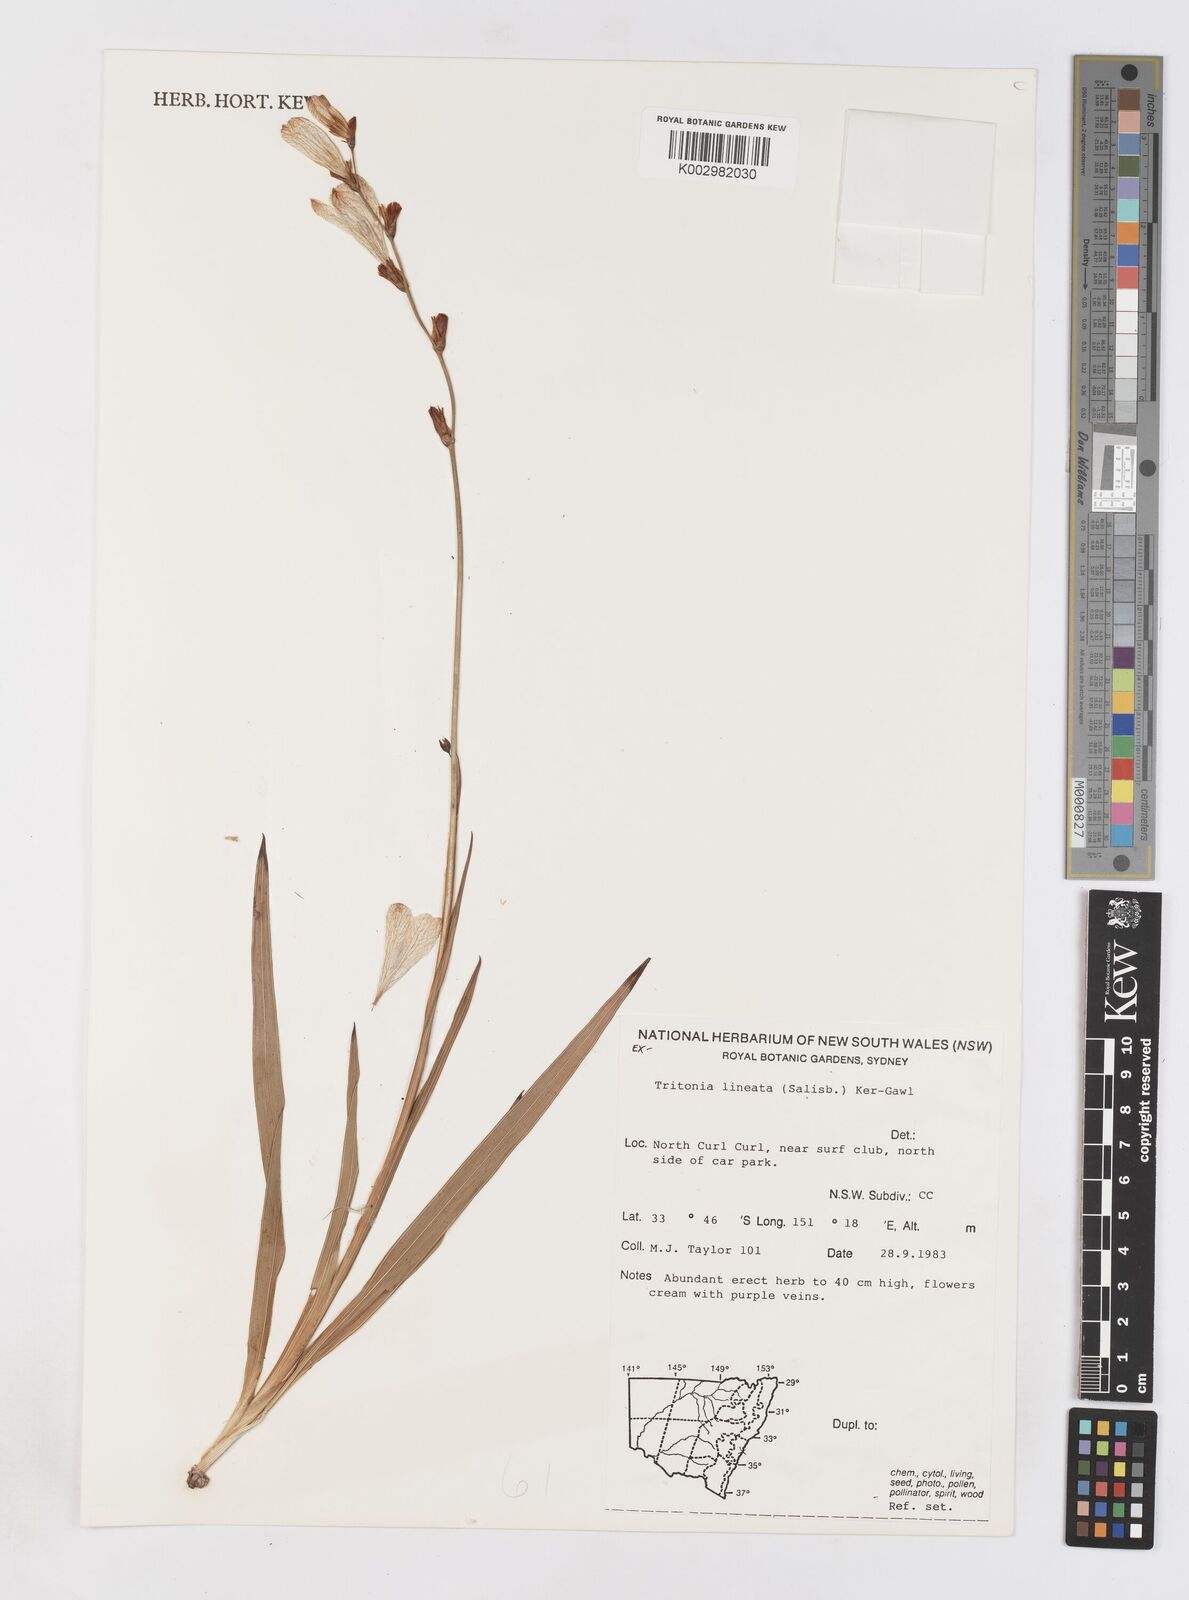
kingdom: Plantae
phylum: Tracheophyta
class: Liliopsida
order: Asparagales
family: Iridaceae
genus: Tritonia
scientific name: Tritonia gladiolaris
